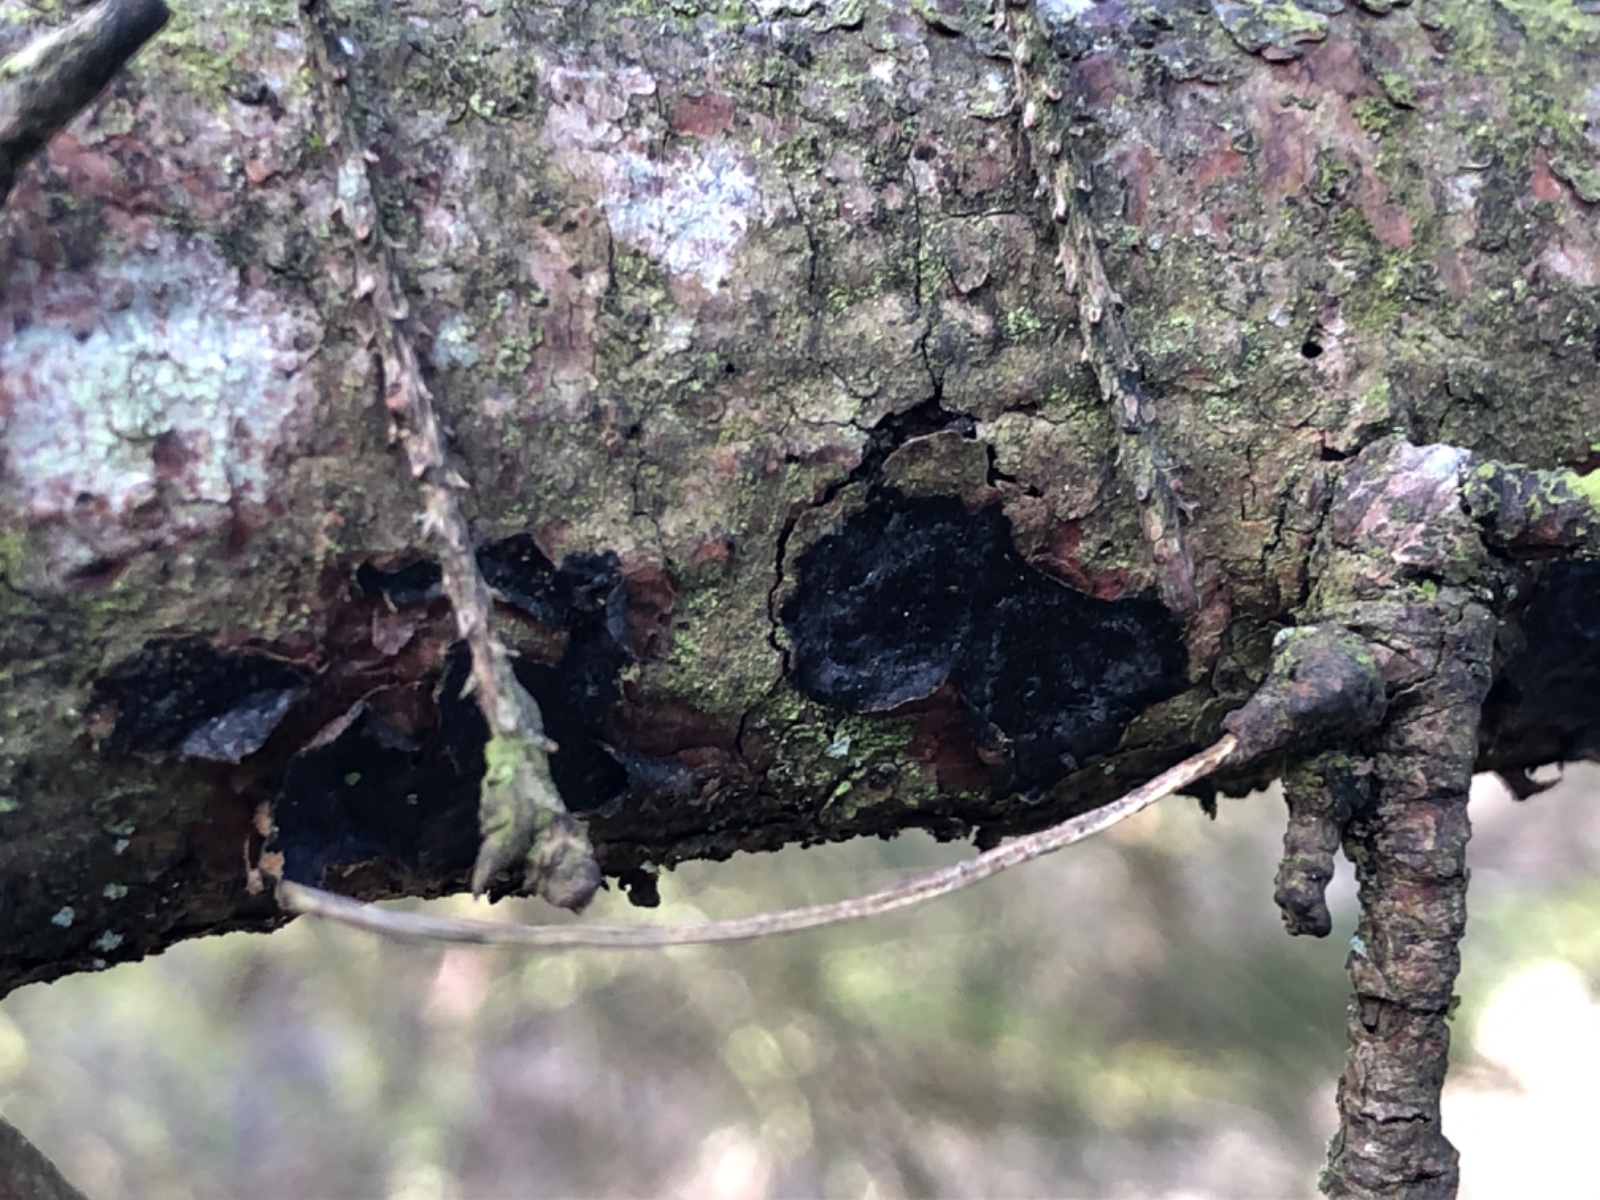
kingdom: Fungi
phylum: Basidiomycota
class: Agaricomycetes
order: Auriculariales
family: Auriculariaceae
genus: Exidia
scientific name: Exidia pithya
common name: gran-bævretop
